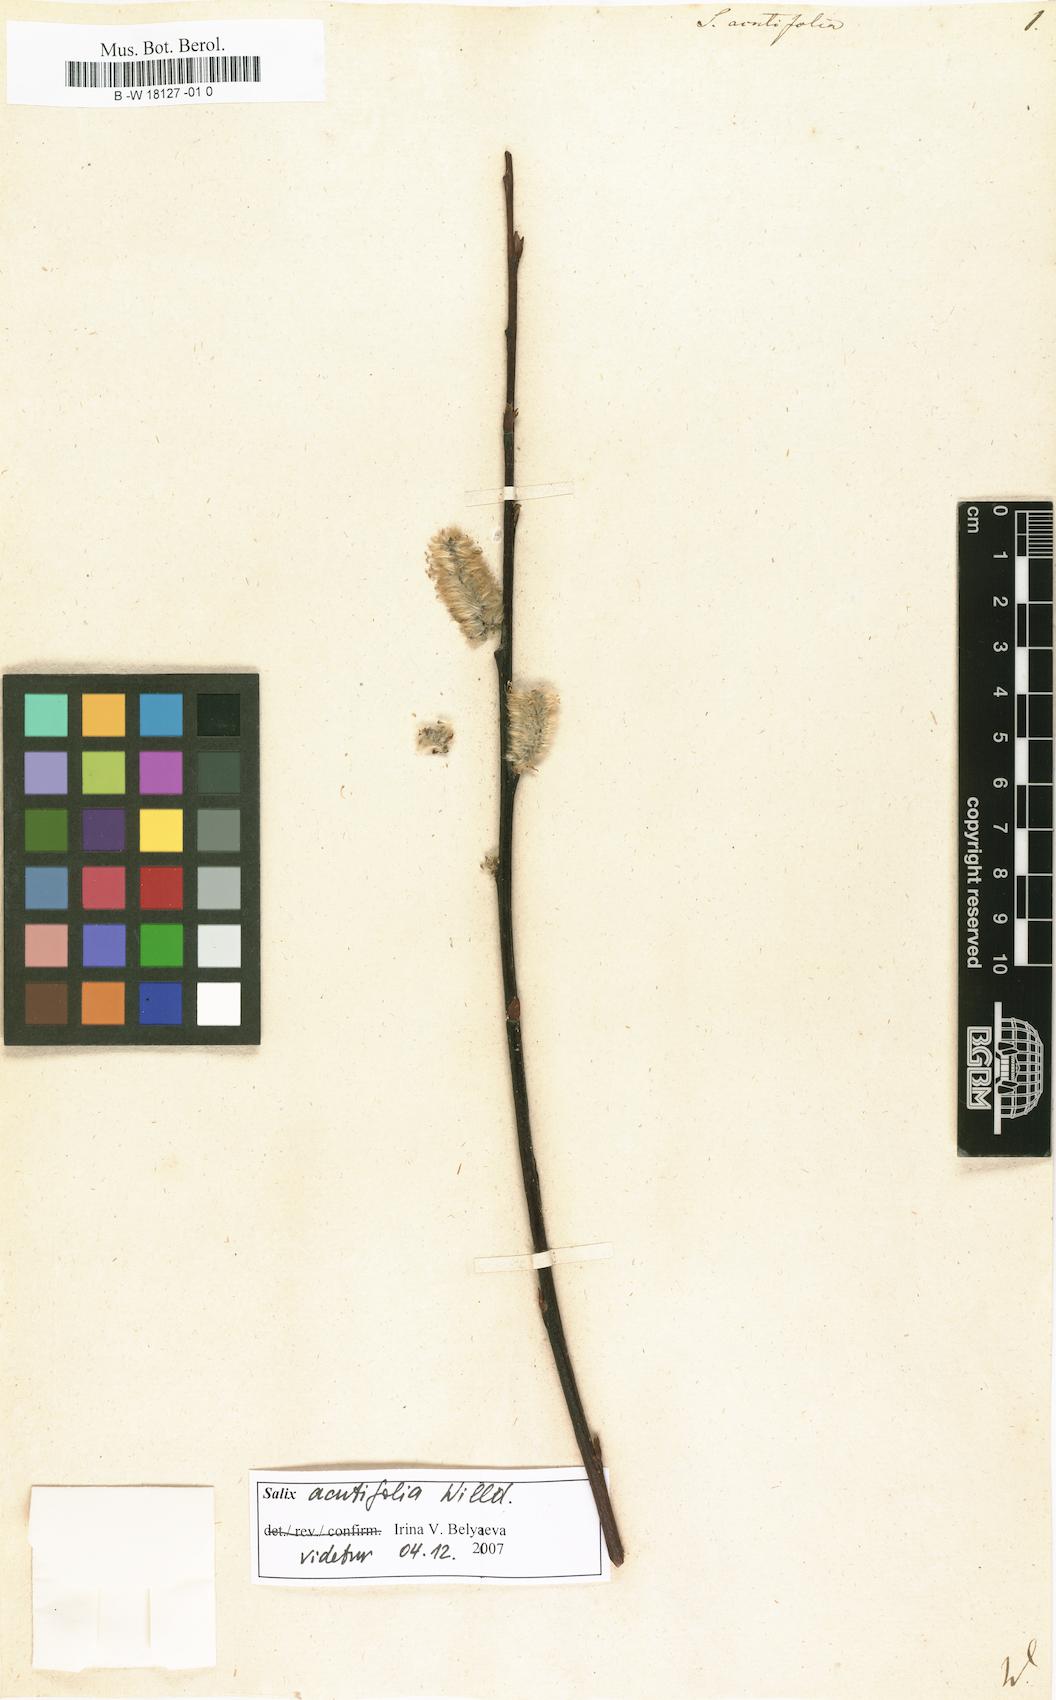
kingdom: Plantae
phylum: Tracheophyta
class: Magnoliopsida
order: Malpighiales
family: Salicaceae
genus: Salix
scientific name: Salix acutifolia
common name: Siberian violet-willow
